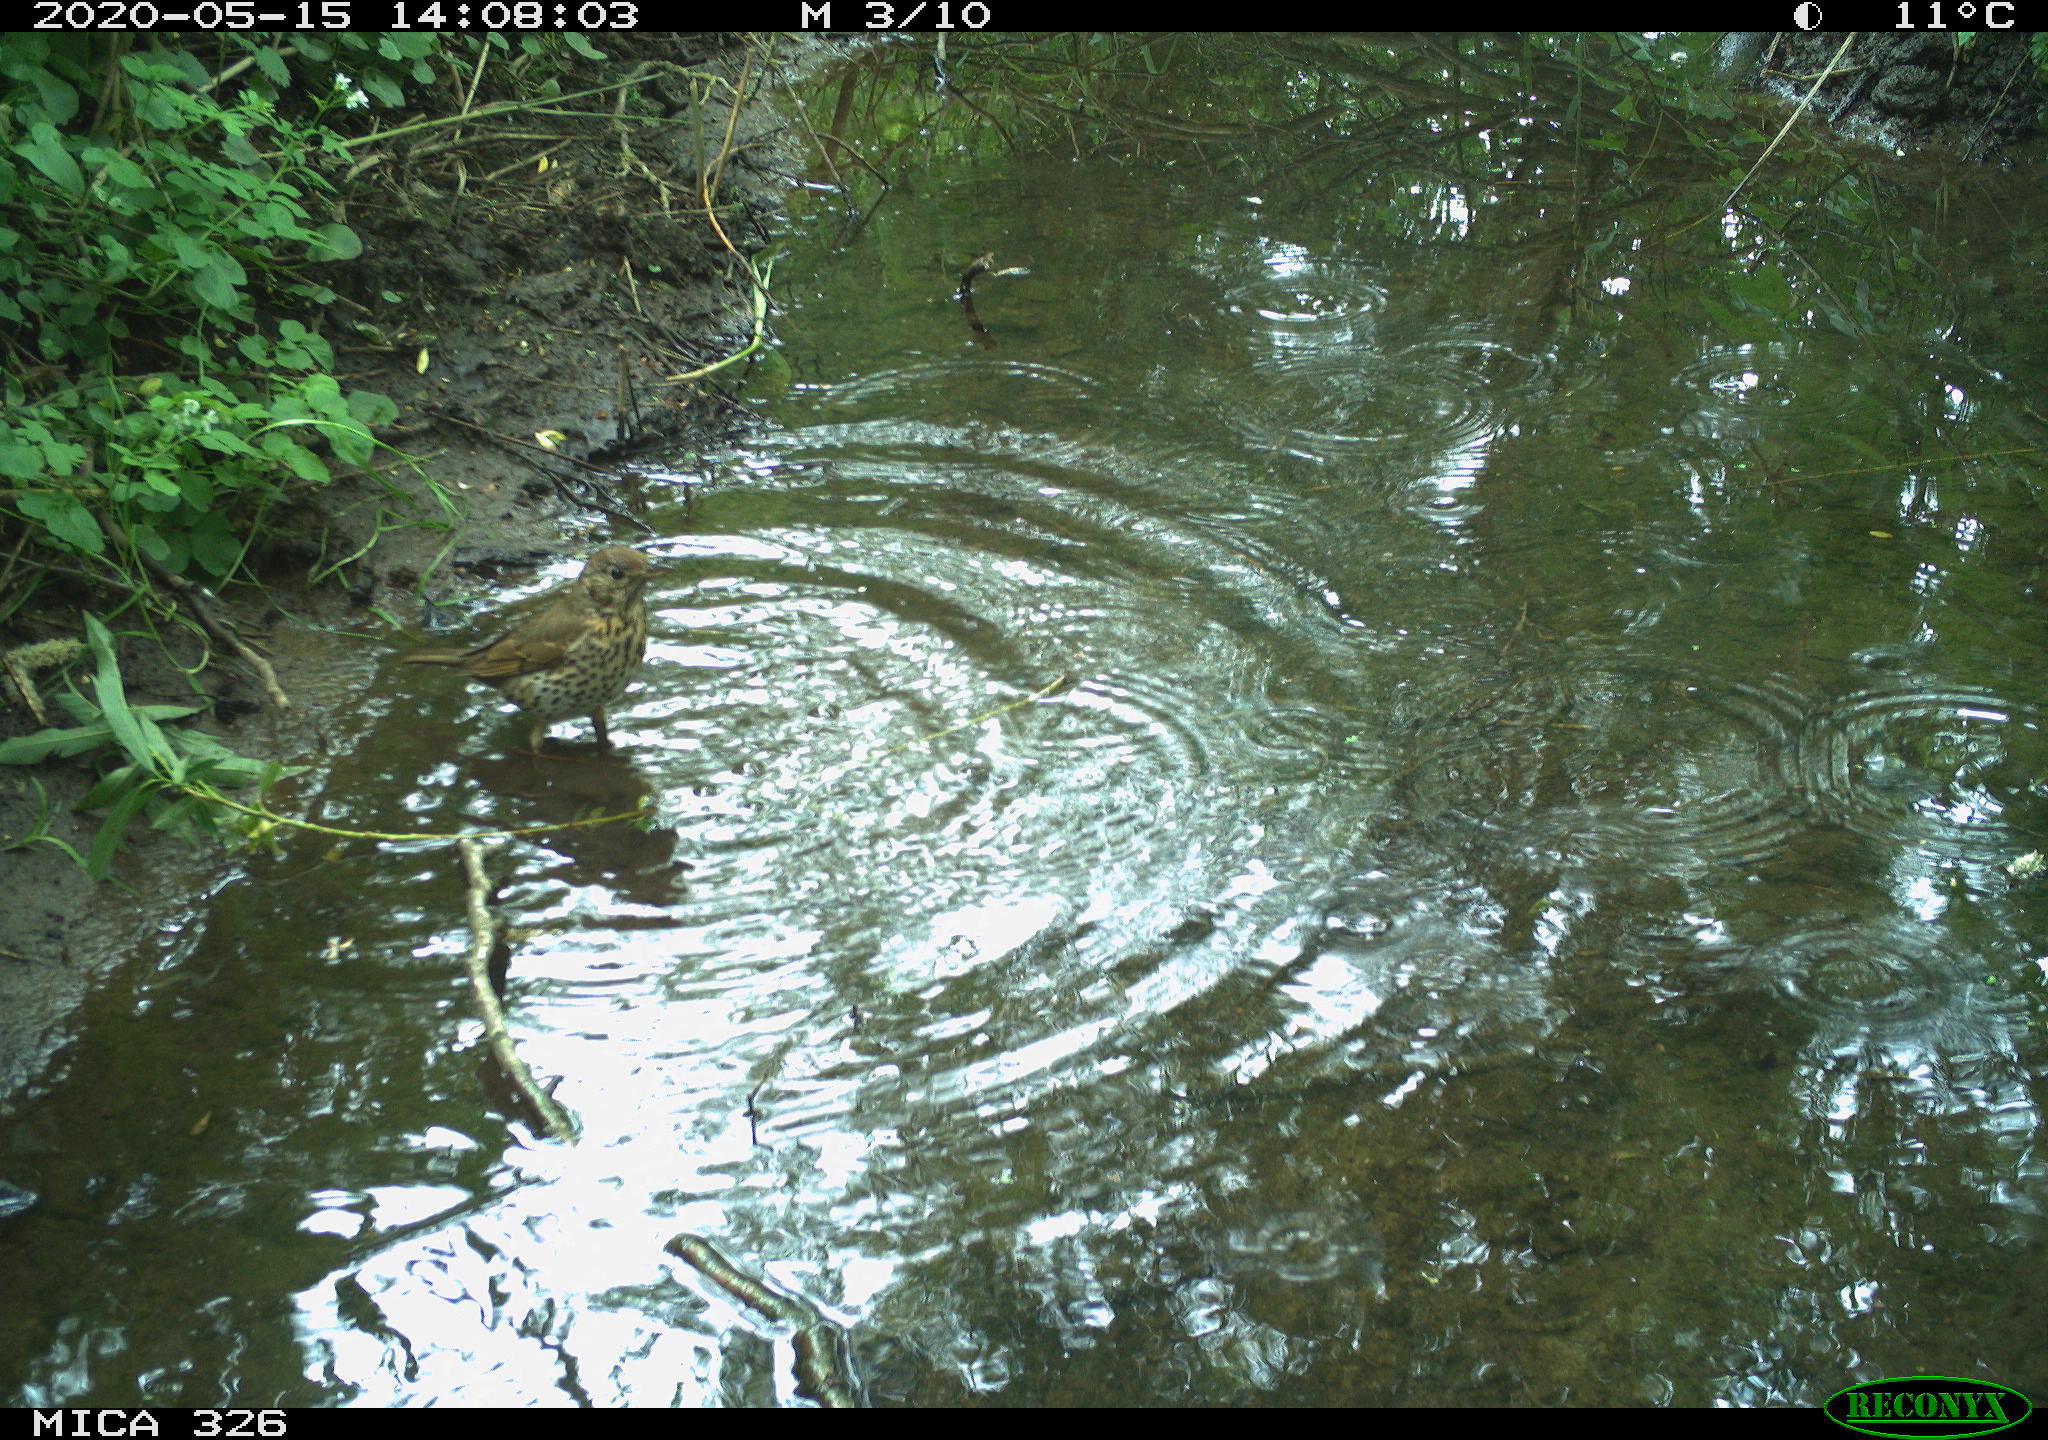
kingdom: Animalia
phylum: Chordata
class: Aves
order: Passeriformes
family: Turdidae
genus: Turdus
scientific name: Turdus philomelos
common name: Song thrush
